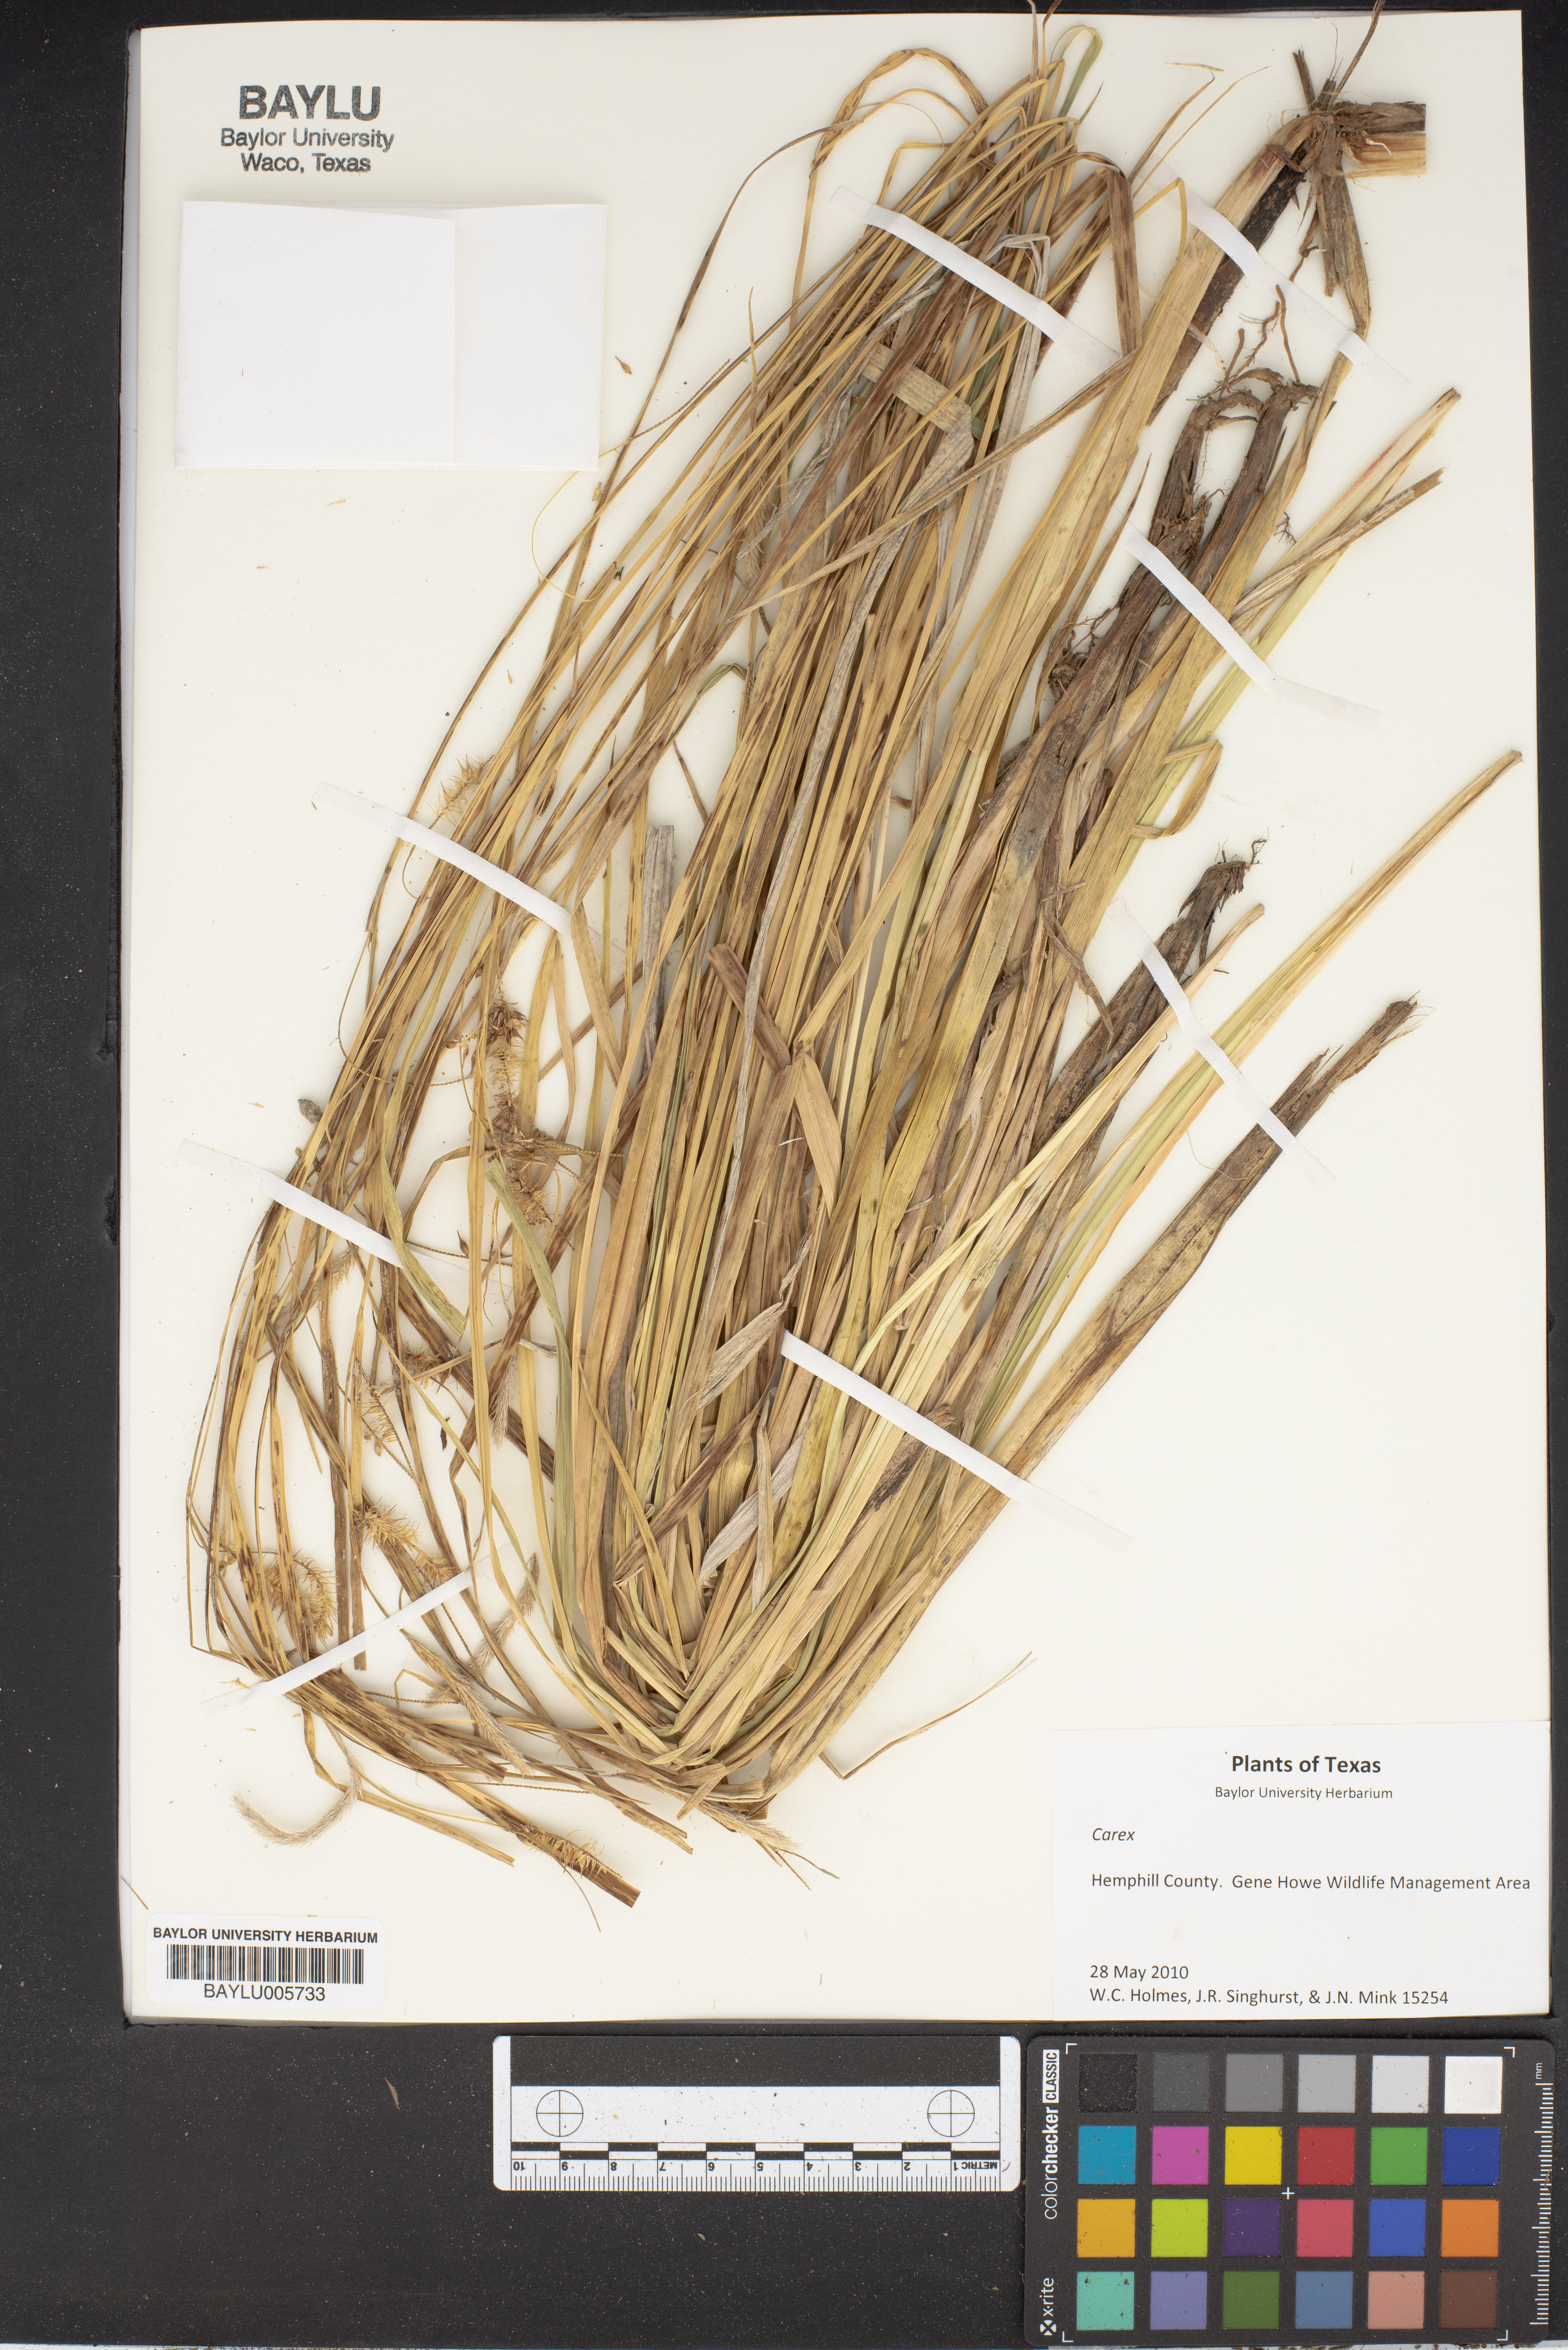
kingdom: Plantae
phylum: Tracheophyta
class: Liliopsida
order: Poales
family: Cyperaceae
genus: Carex
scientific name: Carex
